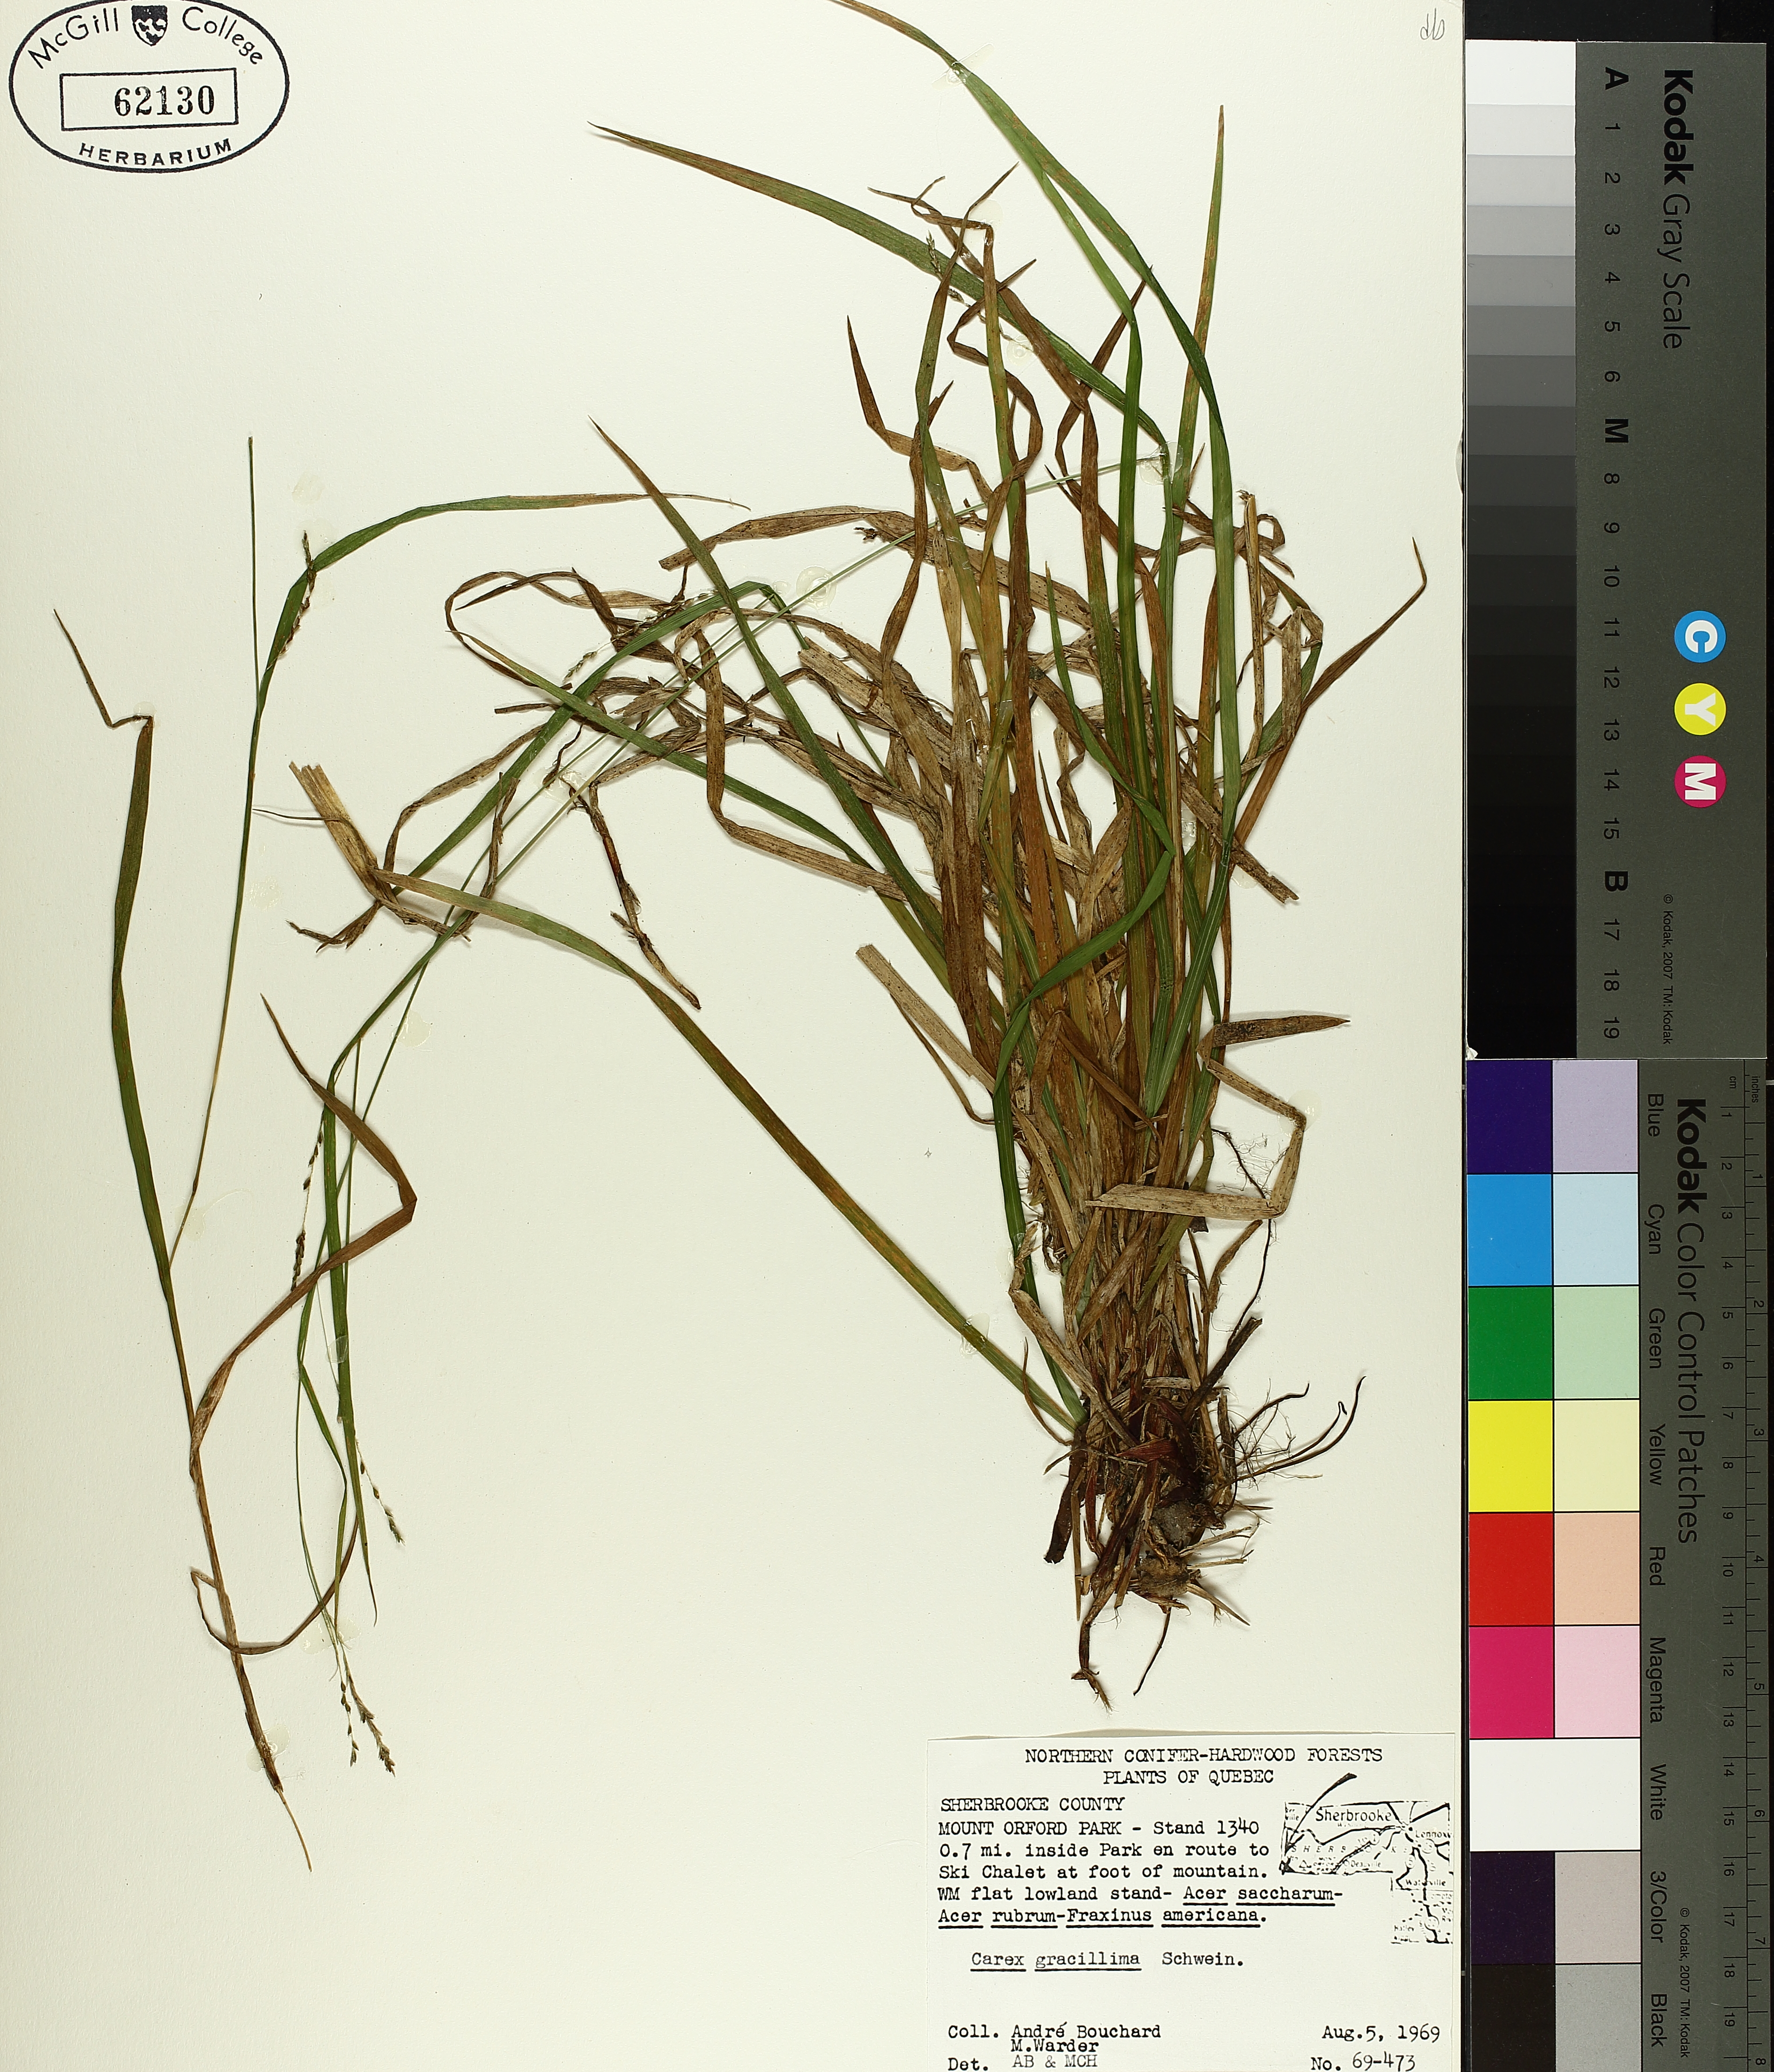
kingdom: Plantae
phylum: Tracheophyta
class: Liliopsida
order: Poales
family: Cyperaceae
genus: Carex
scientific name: Carex gracillima
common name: Graceful sedge
